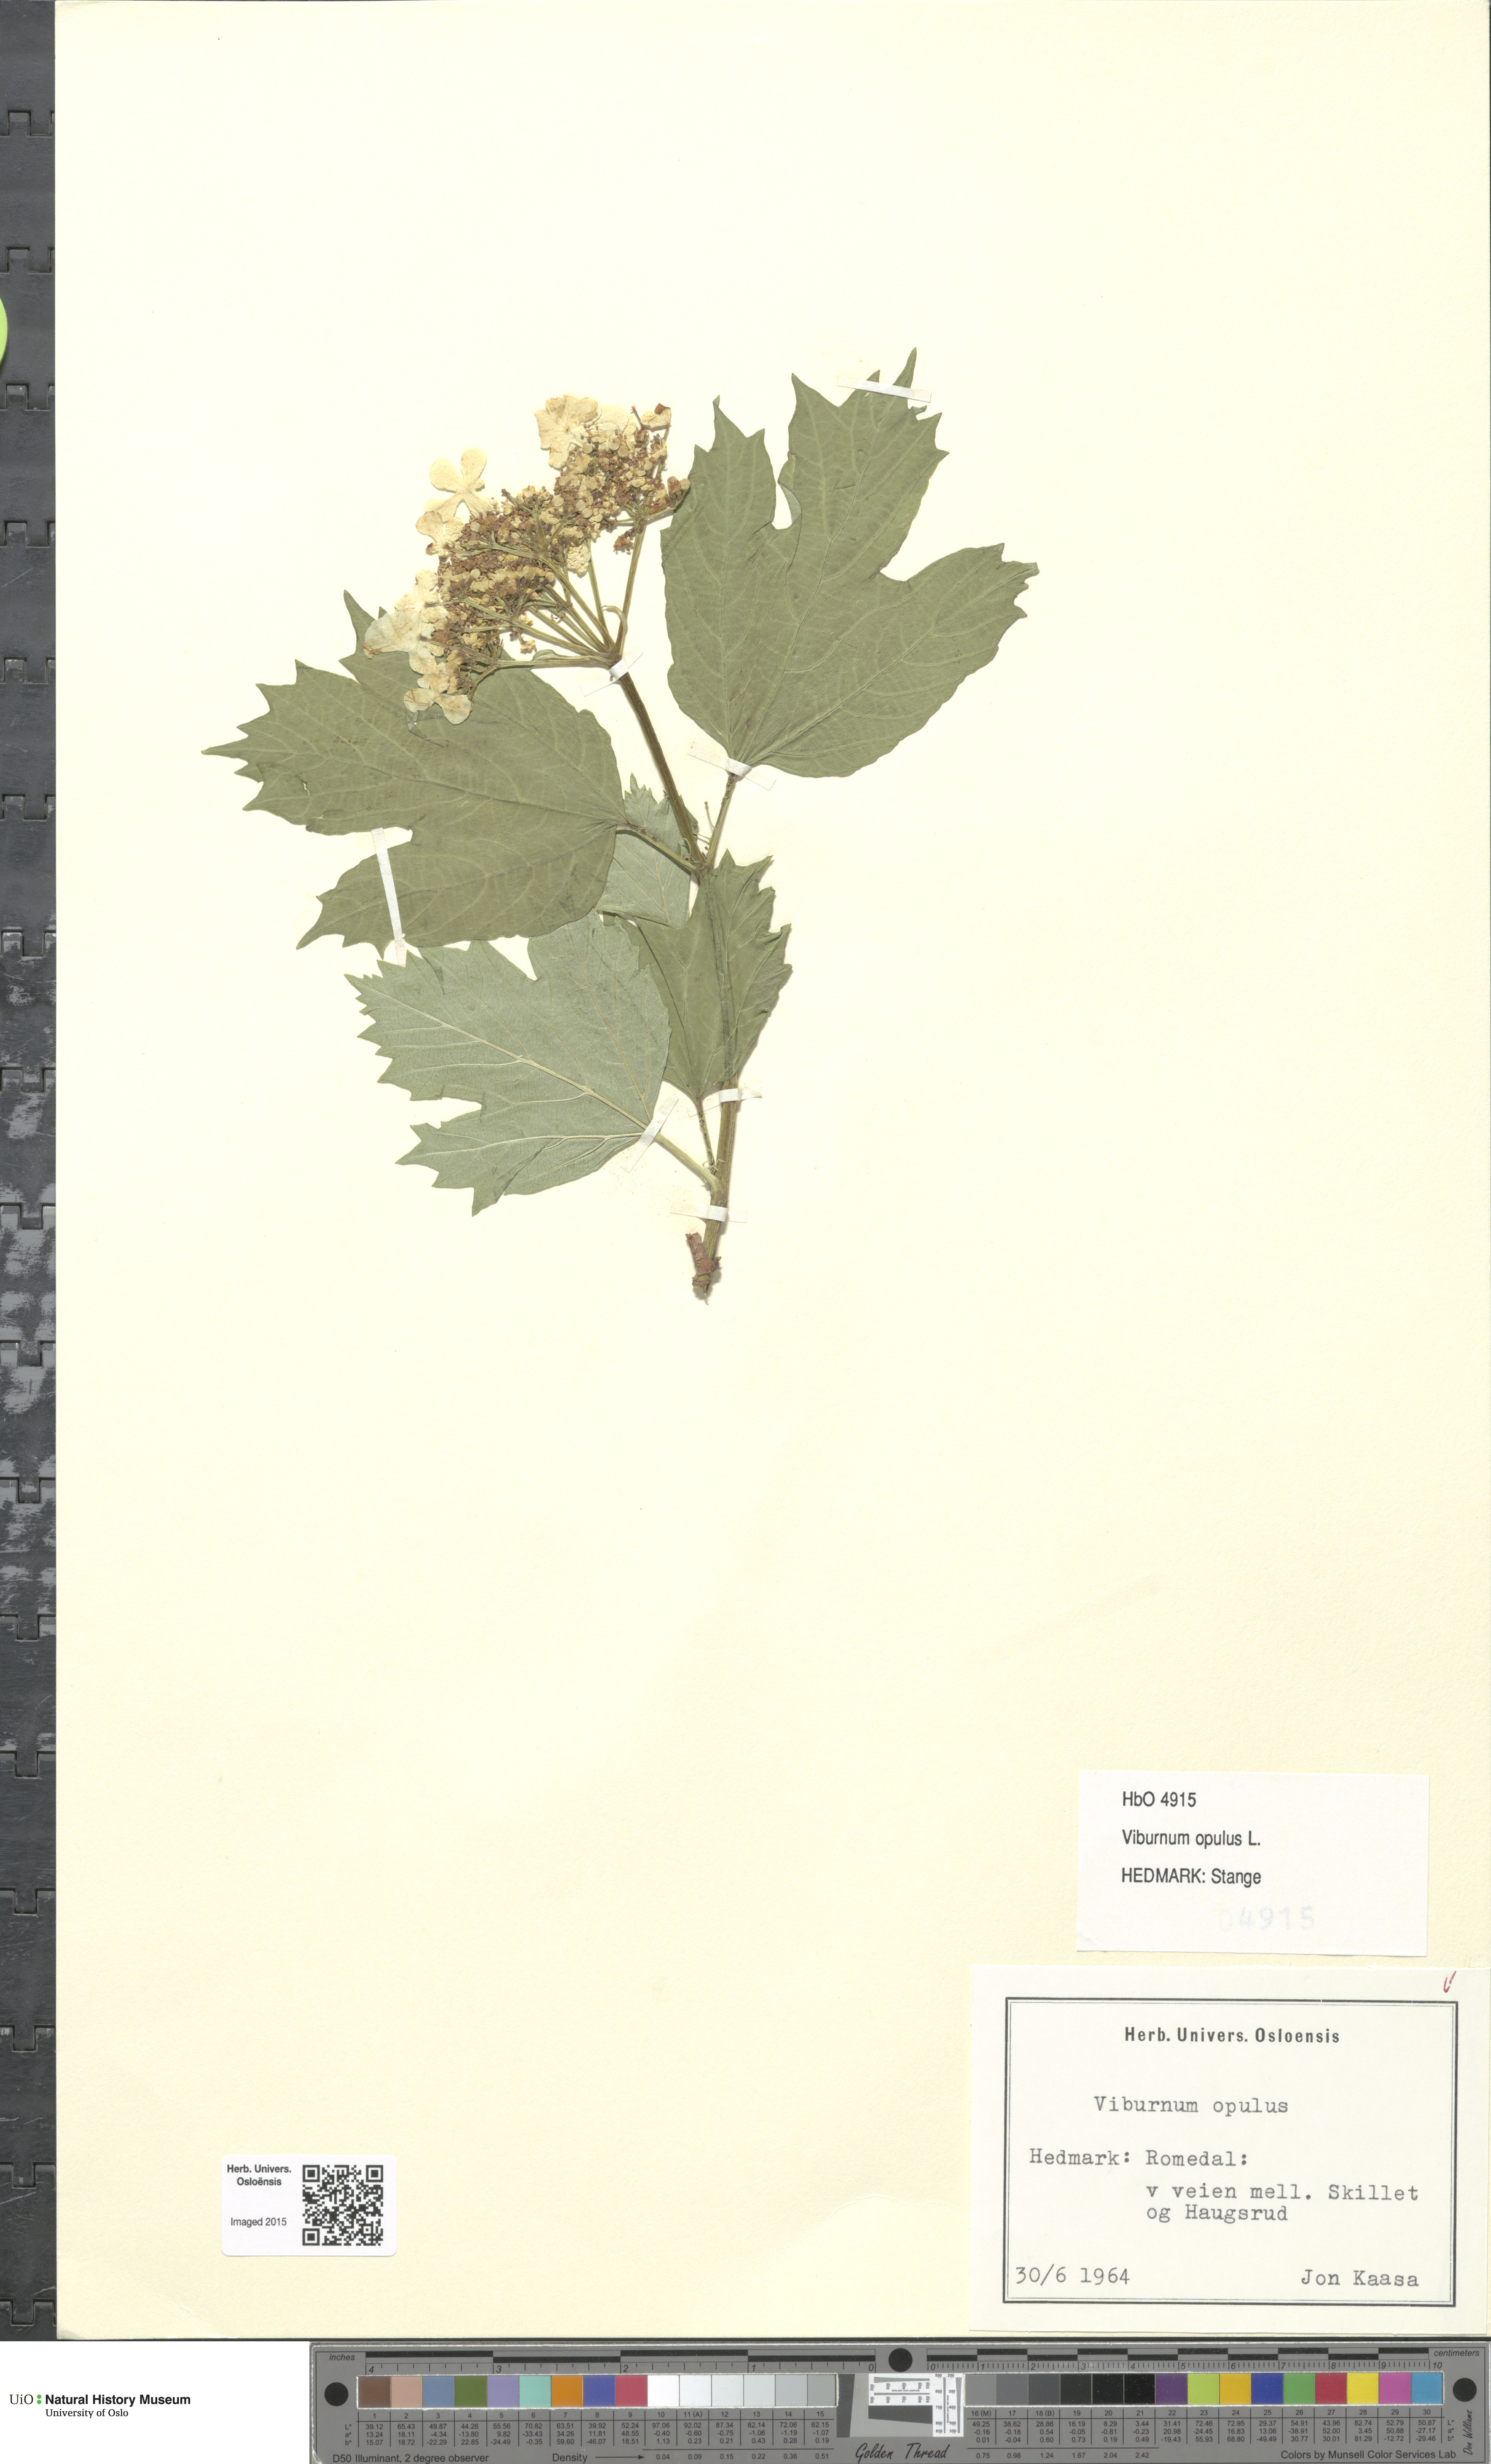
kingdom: Plantae
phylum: Tracheophyta
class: Magnoliopsida
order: Dipsacales
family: Viburnaceae
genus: Viburnum
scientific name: Viburnum opulus
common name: Guelder-rose
